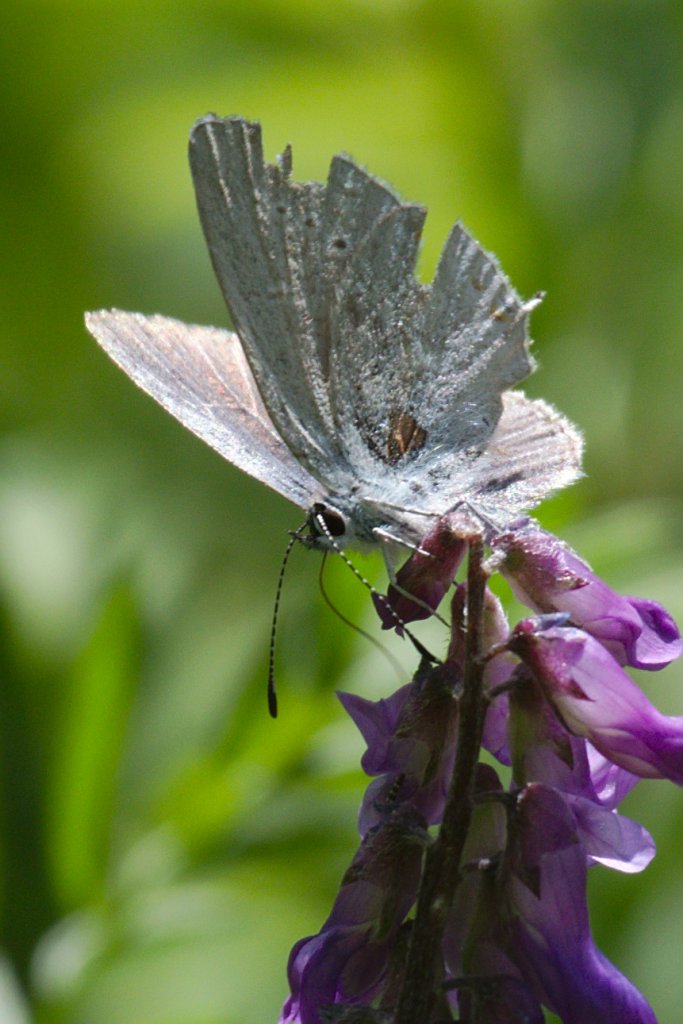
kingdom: Animalia
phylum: Arthropoda
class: Insecta
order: Lepidoptera
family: Lycaenidae
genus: Elkalyce
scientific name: Elkalyce amyntula
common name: Western Tailed-Blue
